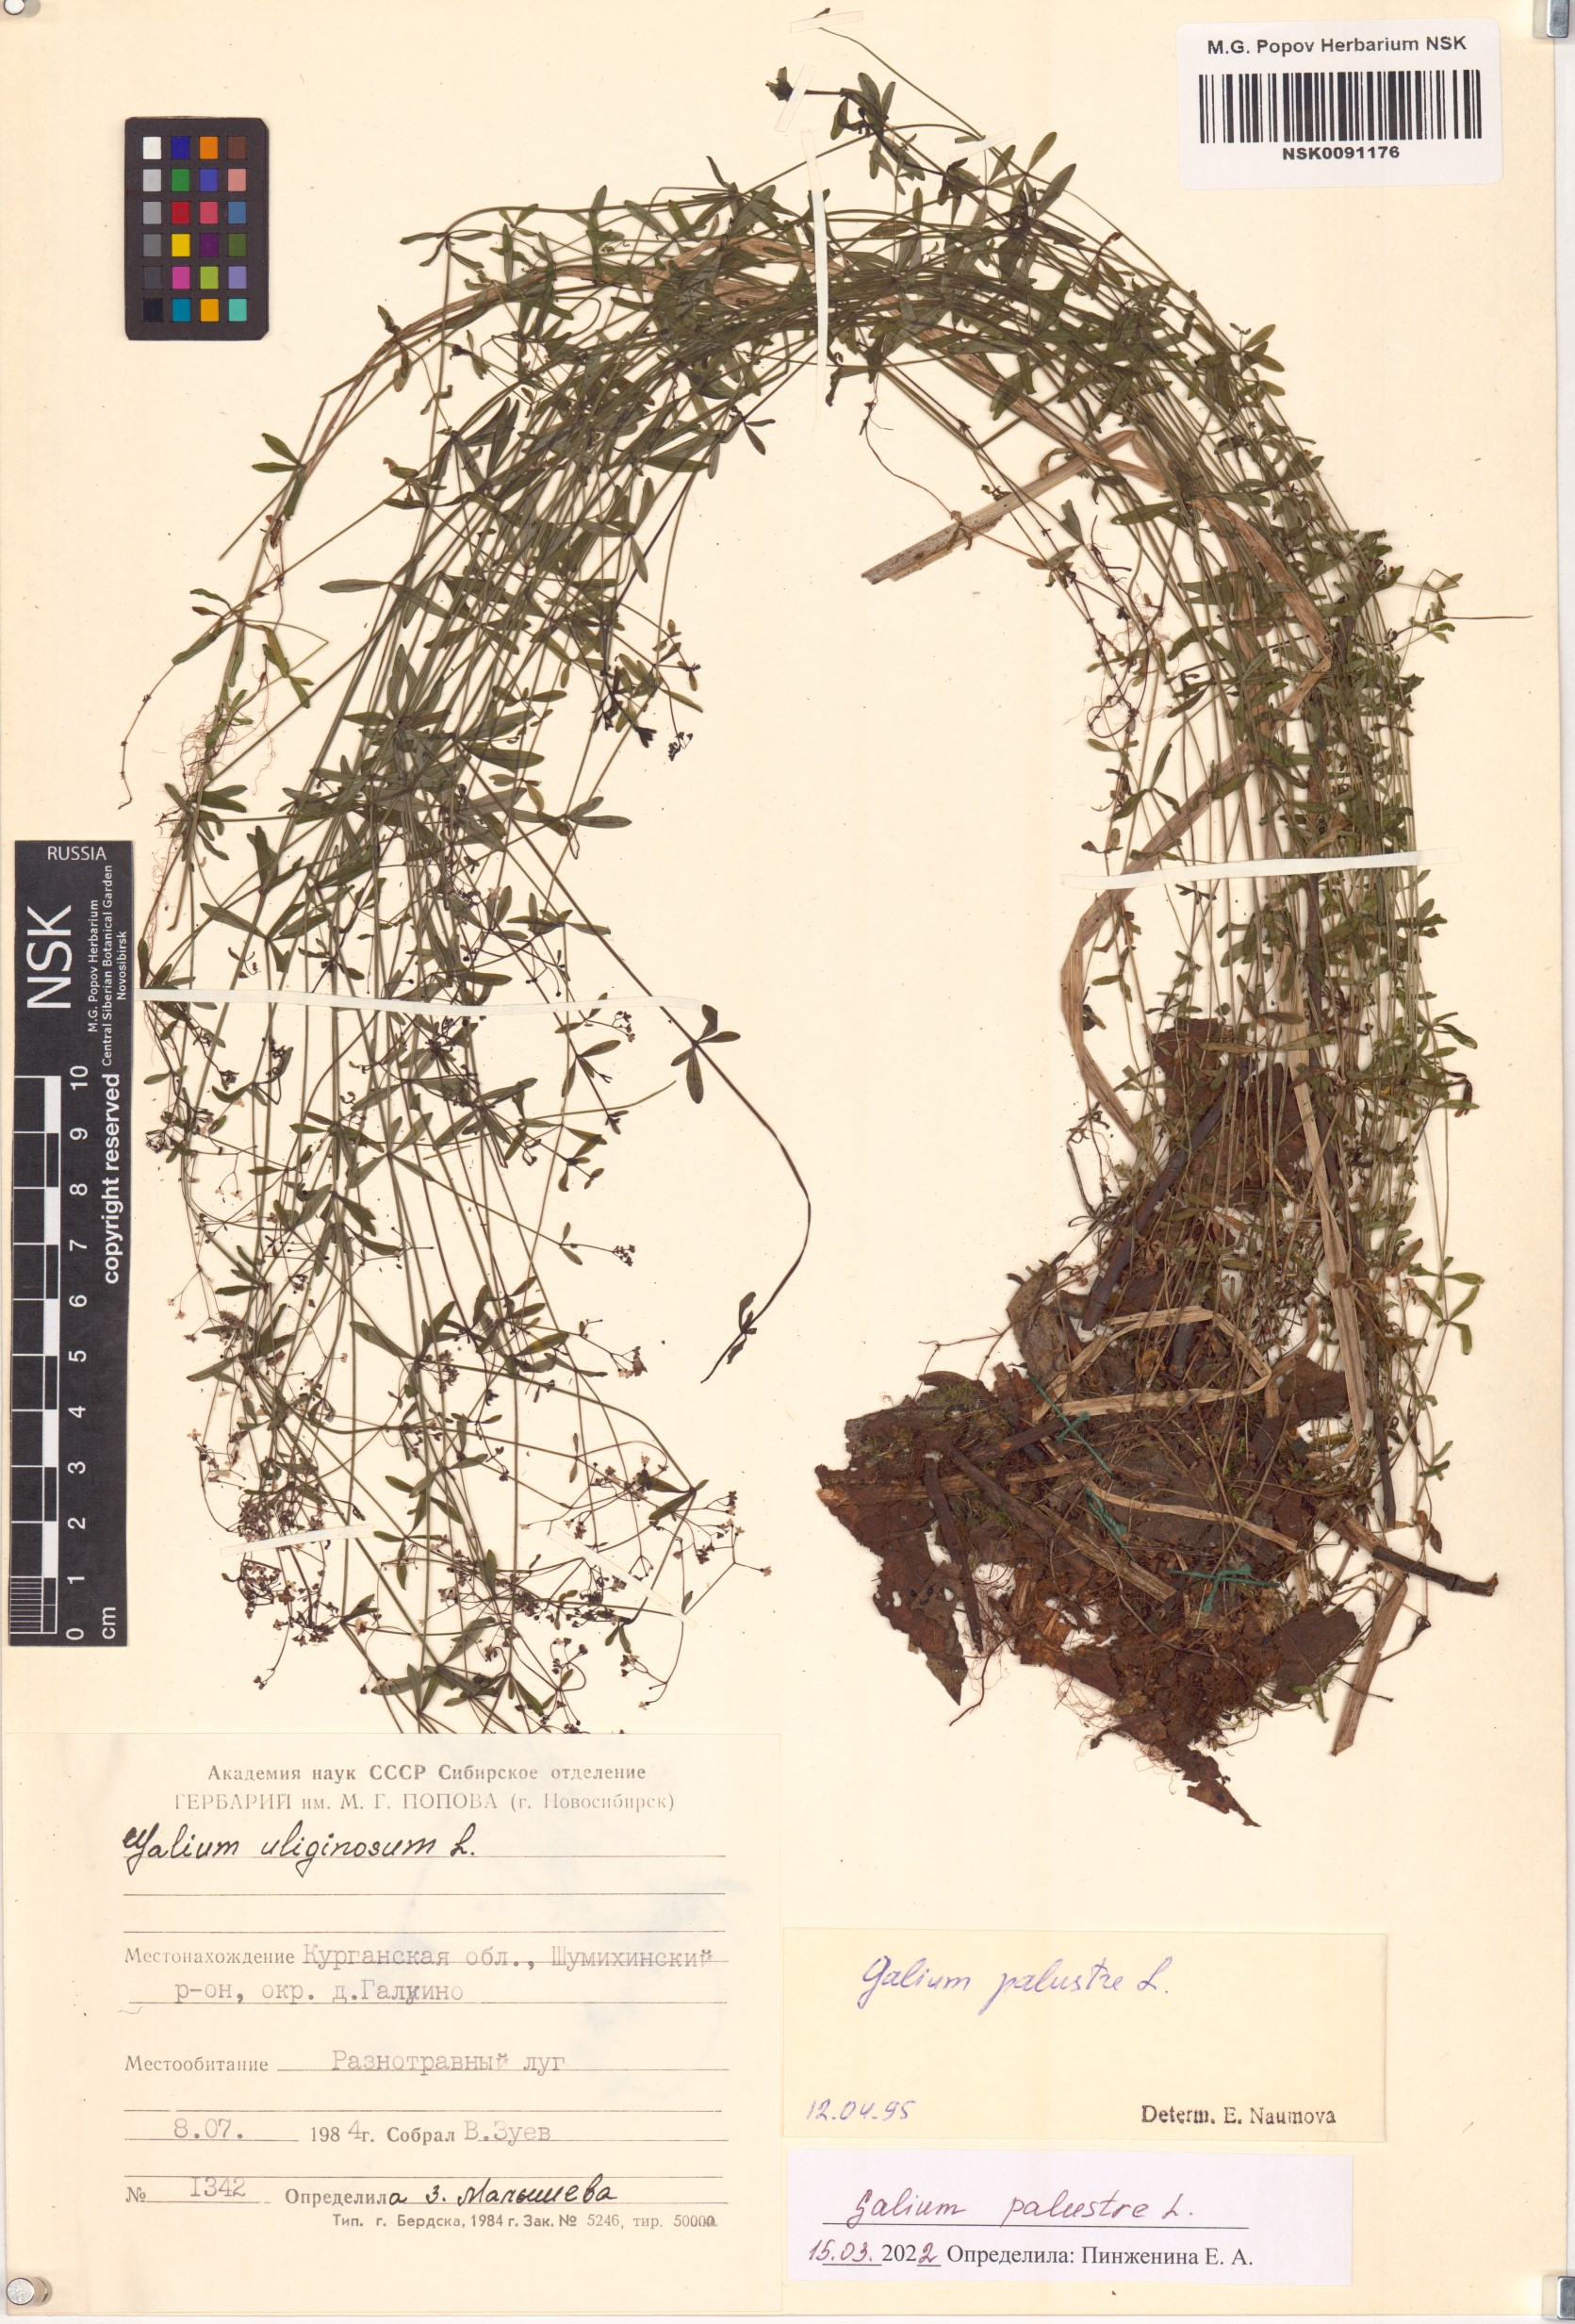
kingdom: Plantae
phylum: Tracheophyta
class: Magnoliopsida
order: Gentianales
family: Rubiaceae
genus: Galium
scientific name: Galium palustre
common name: Common marsh-bedstraw
